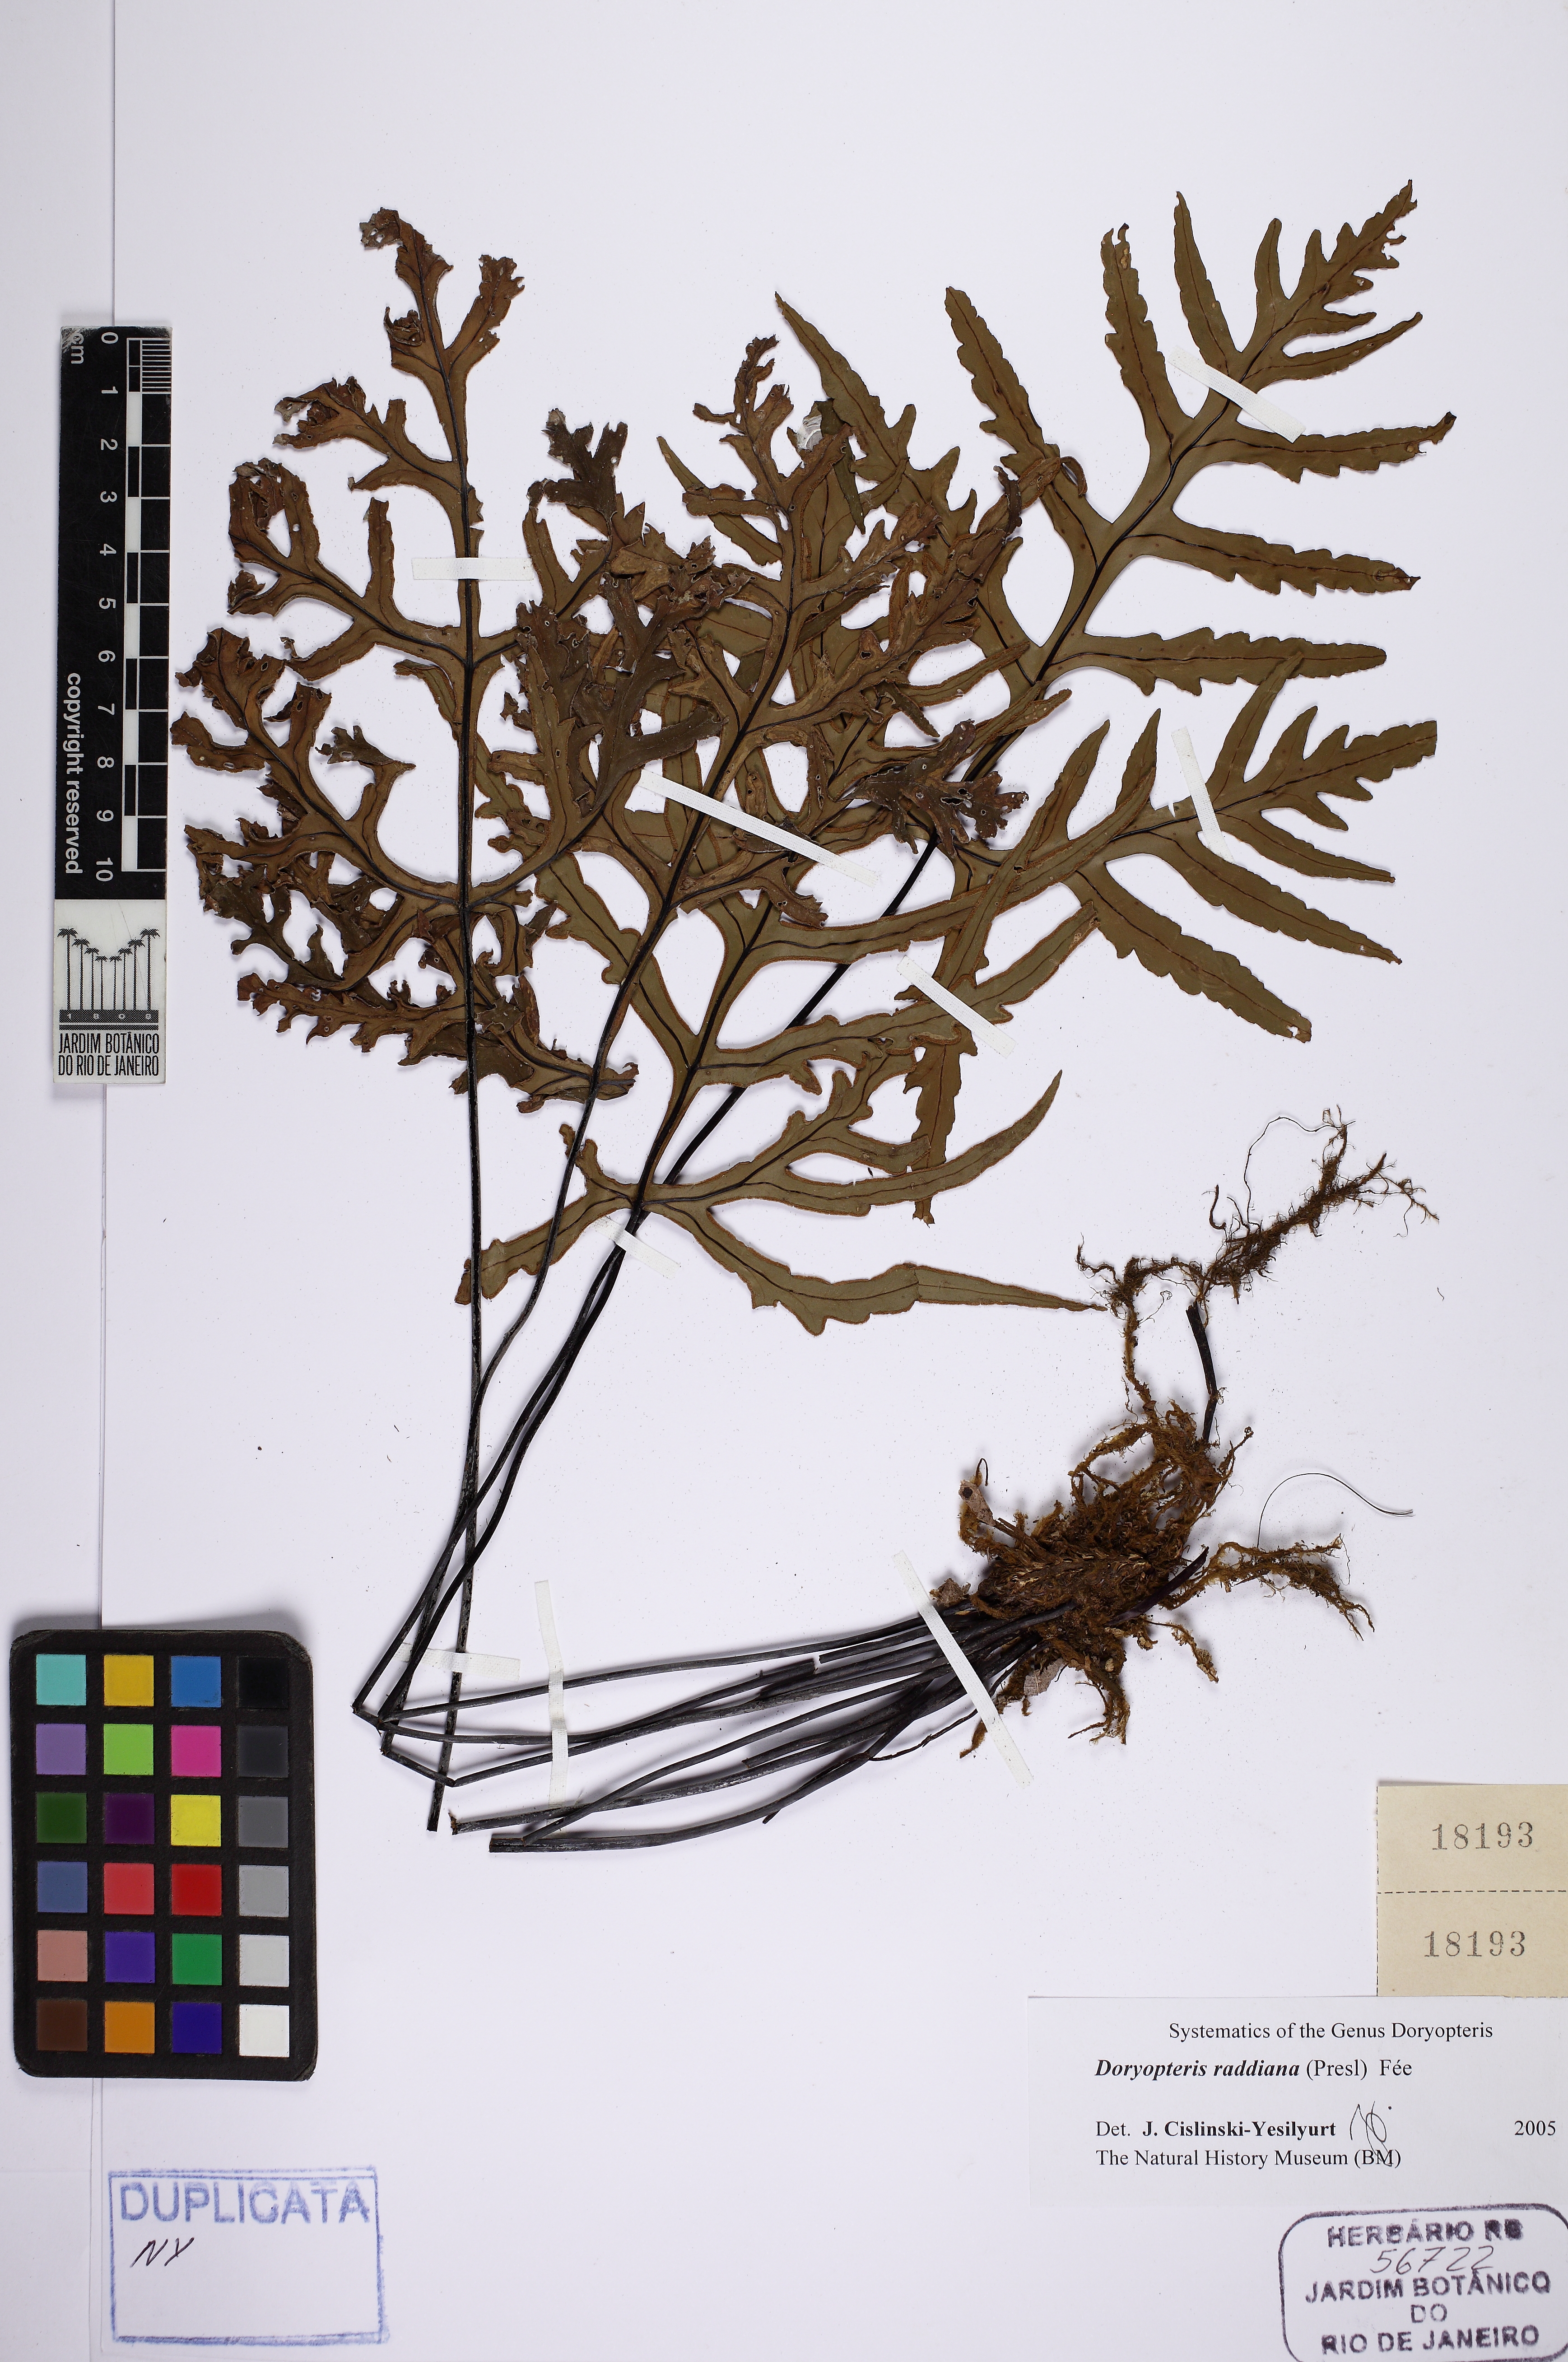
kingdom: Plantae
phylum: Tracheophyta
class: Polypodiopsida
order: Polypodiales
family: Pteridaceae
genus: Doryopteris
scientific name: Doryopteris raddiana
